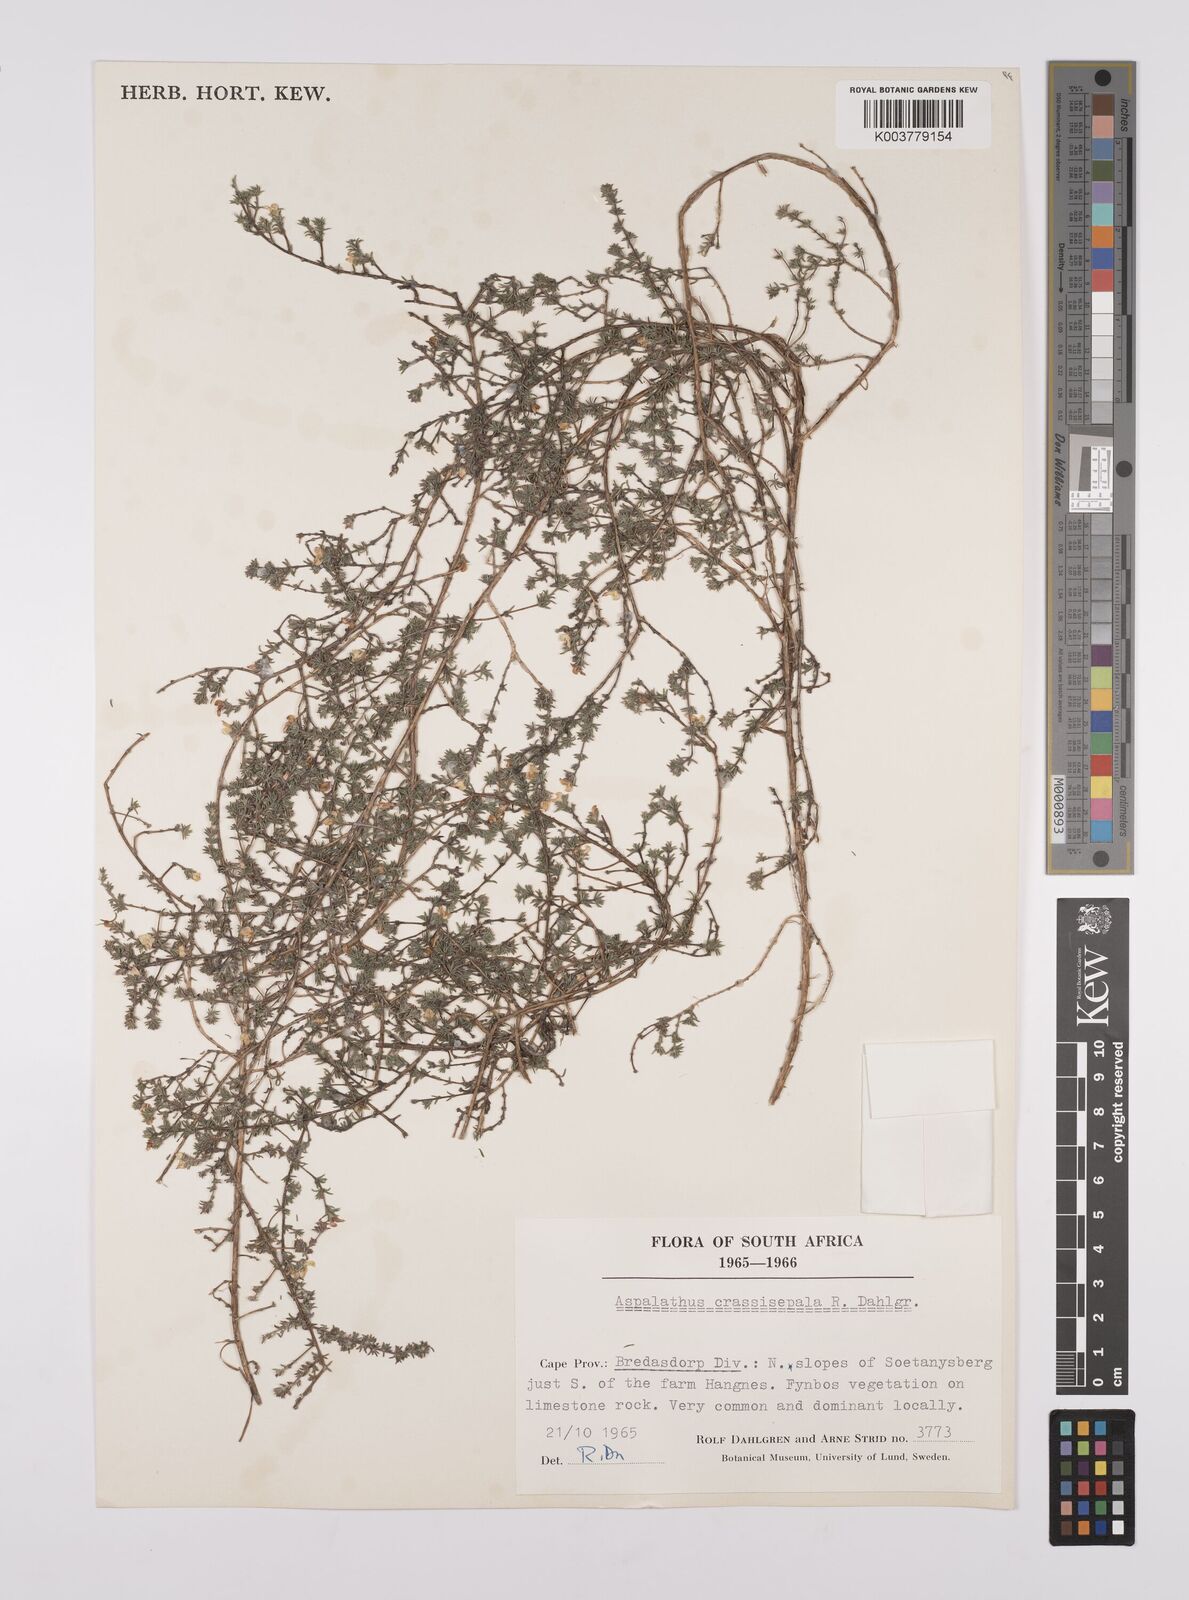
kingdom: Plantae
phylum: Tracheophyta
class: Magnoliopsida
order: Fabales
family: Fabaceae
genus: Aspalathus
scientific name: Aspalathus crassisepala
